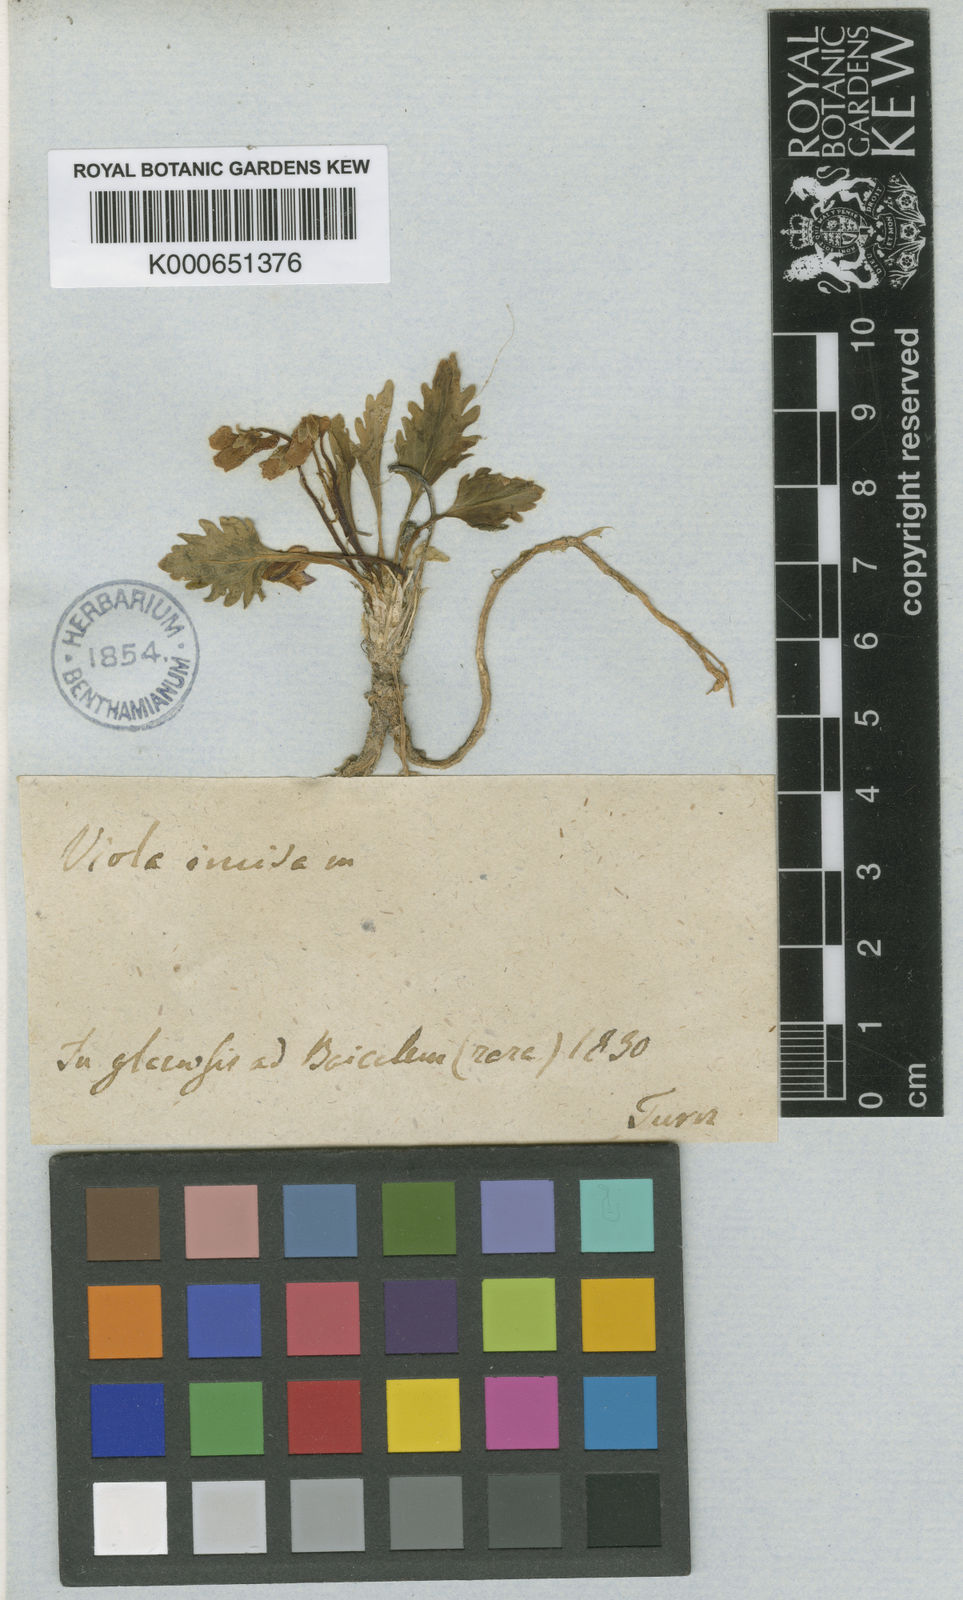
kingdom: Plantae
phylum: Tracheophyta
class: Magnoliopsida
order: Malpighiales
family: Violaceae
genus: Viola
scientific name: Viola incisa
